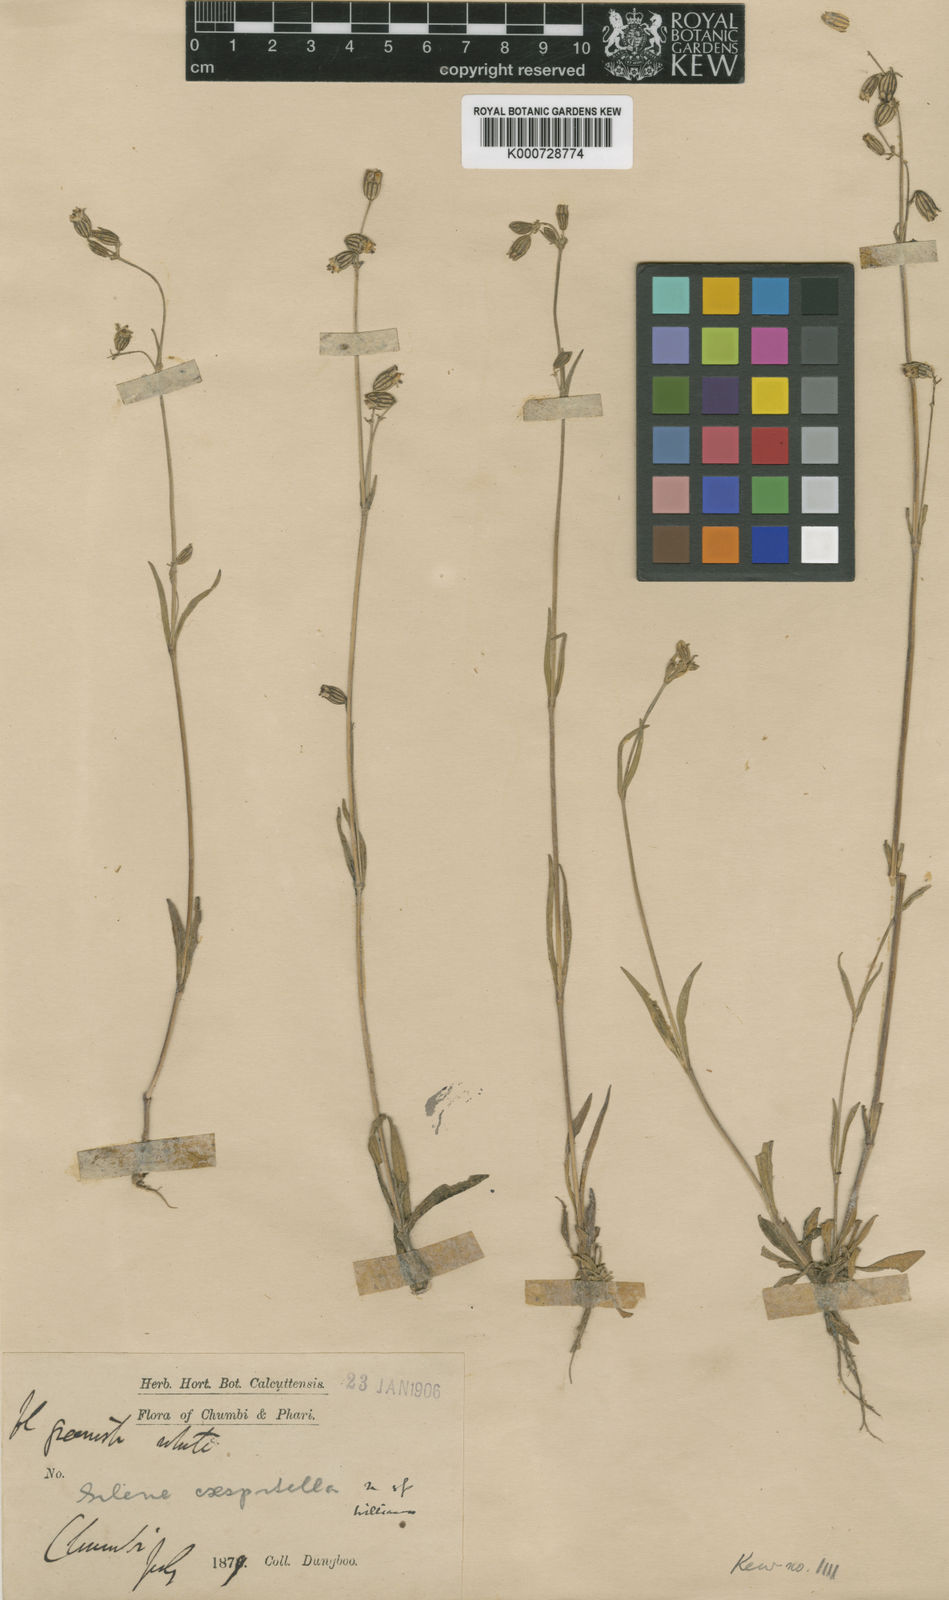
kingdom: Plantae
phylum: Tracheophyta
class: Magnoliopsida
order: Caryophyllales
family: Caryophyllaceae
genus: Silene
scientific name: Silene caespitella
